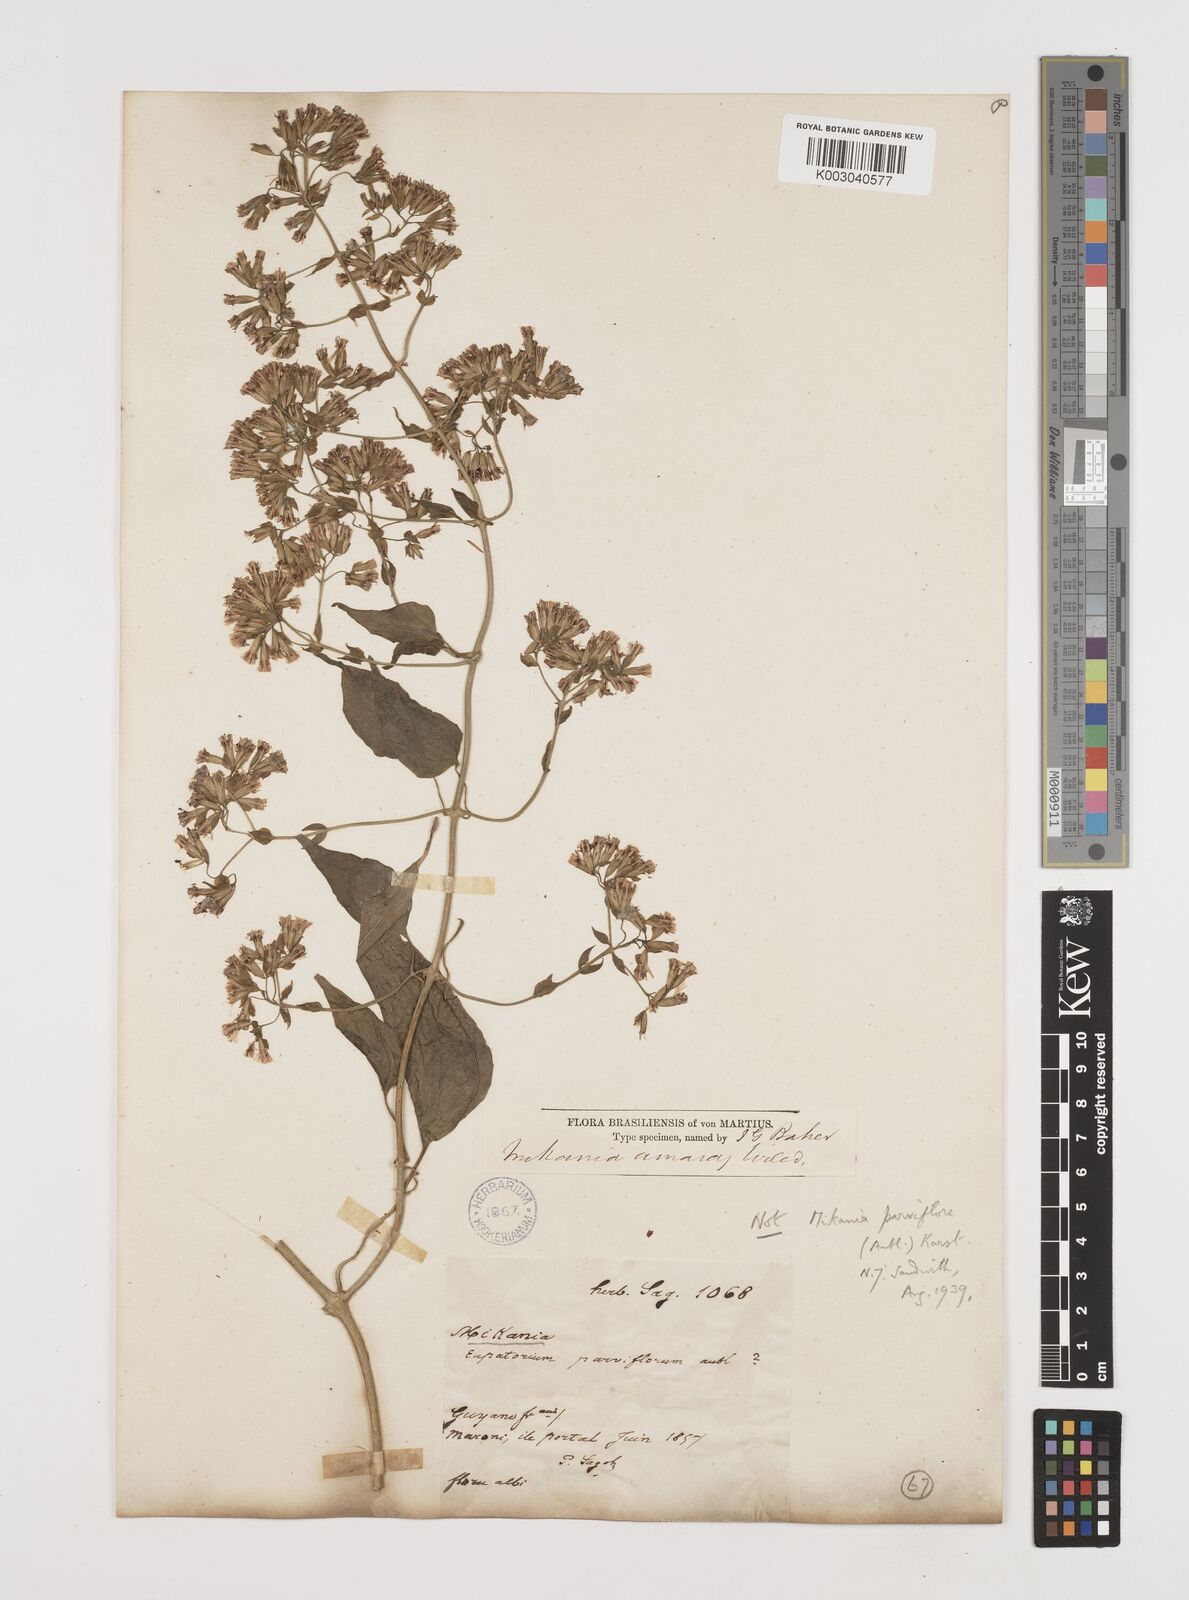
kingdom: Plantae
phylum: Tracheophyta
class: Magnoliopsida
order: Asterales
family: Asteraceae
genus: Mikania
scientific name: Mikania
